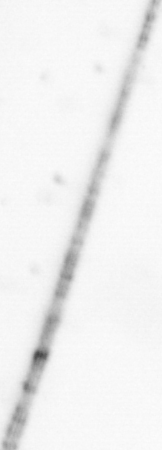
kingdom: Chromista
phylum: Ochrophyta
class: Bacillariophyceae
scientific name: Bacillariophyceae
